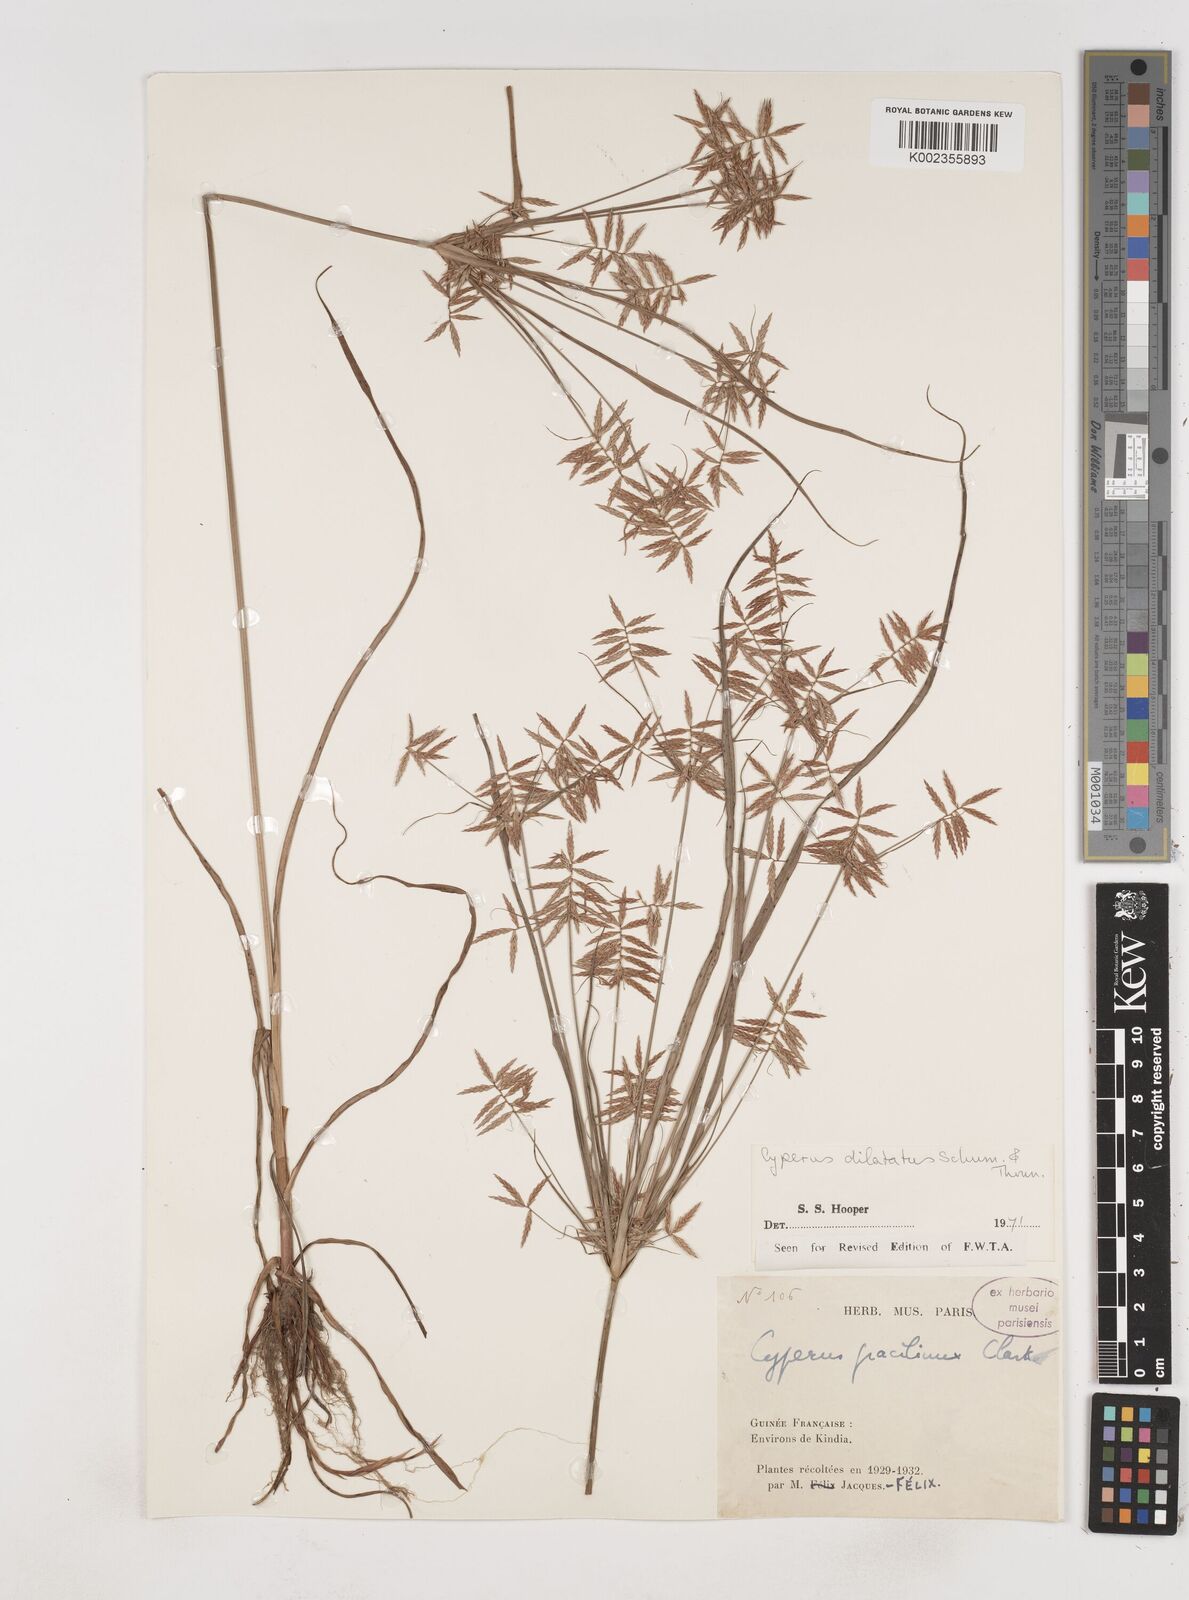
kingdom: Plantae
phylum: Tracheophyta
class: Liliopsida
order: Poales
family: Cyperaceae
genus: Cyperus
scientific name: Cyperus dilatatus
